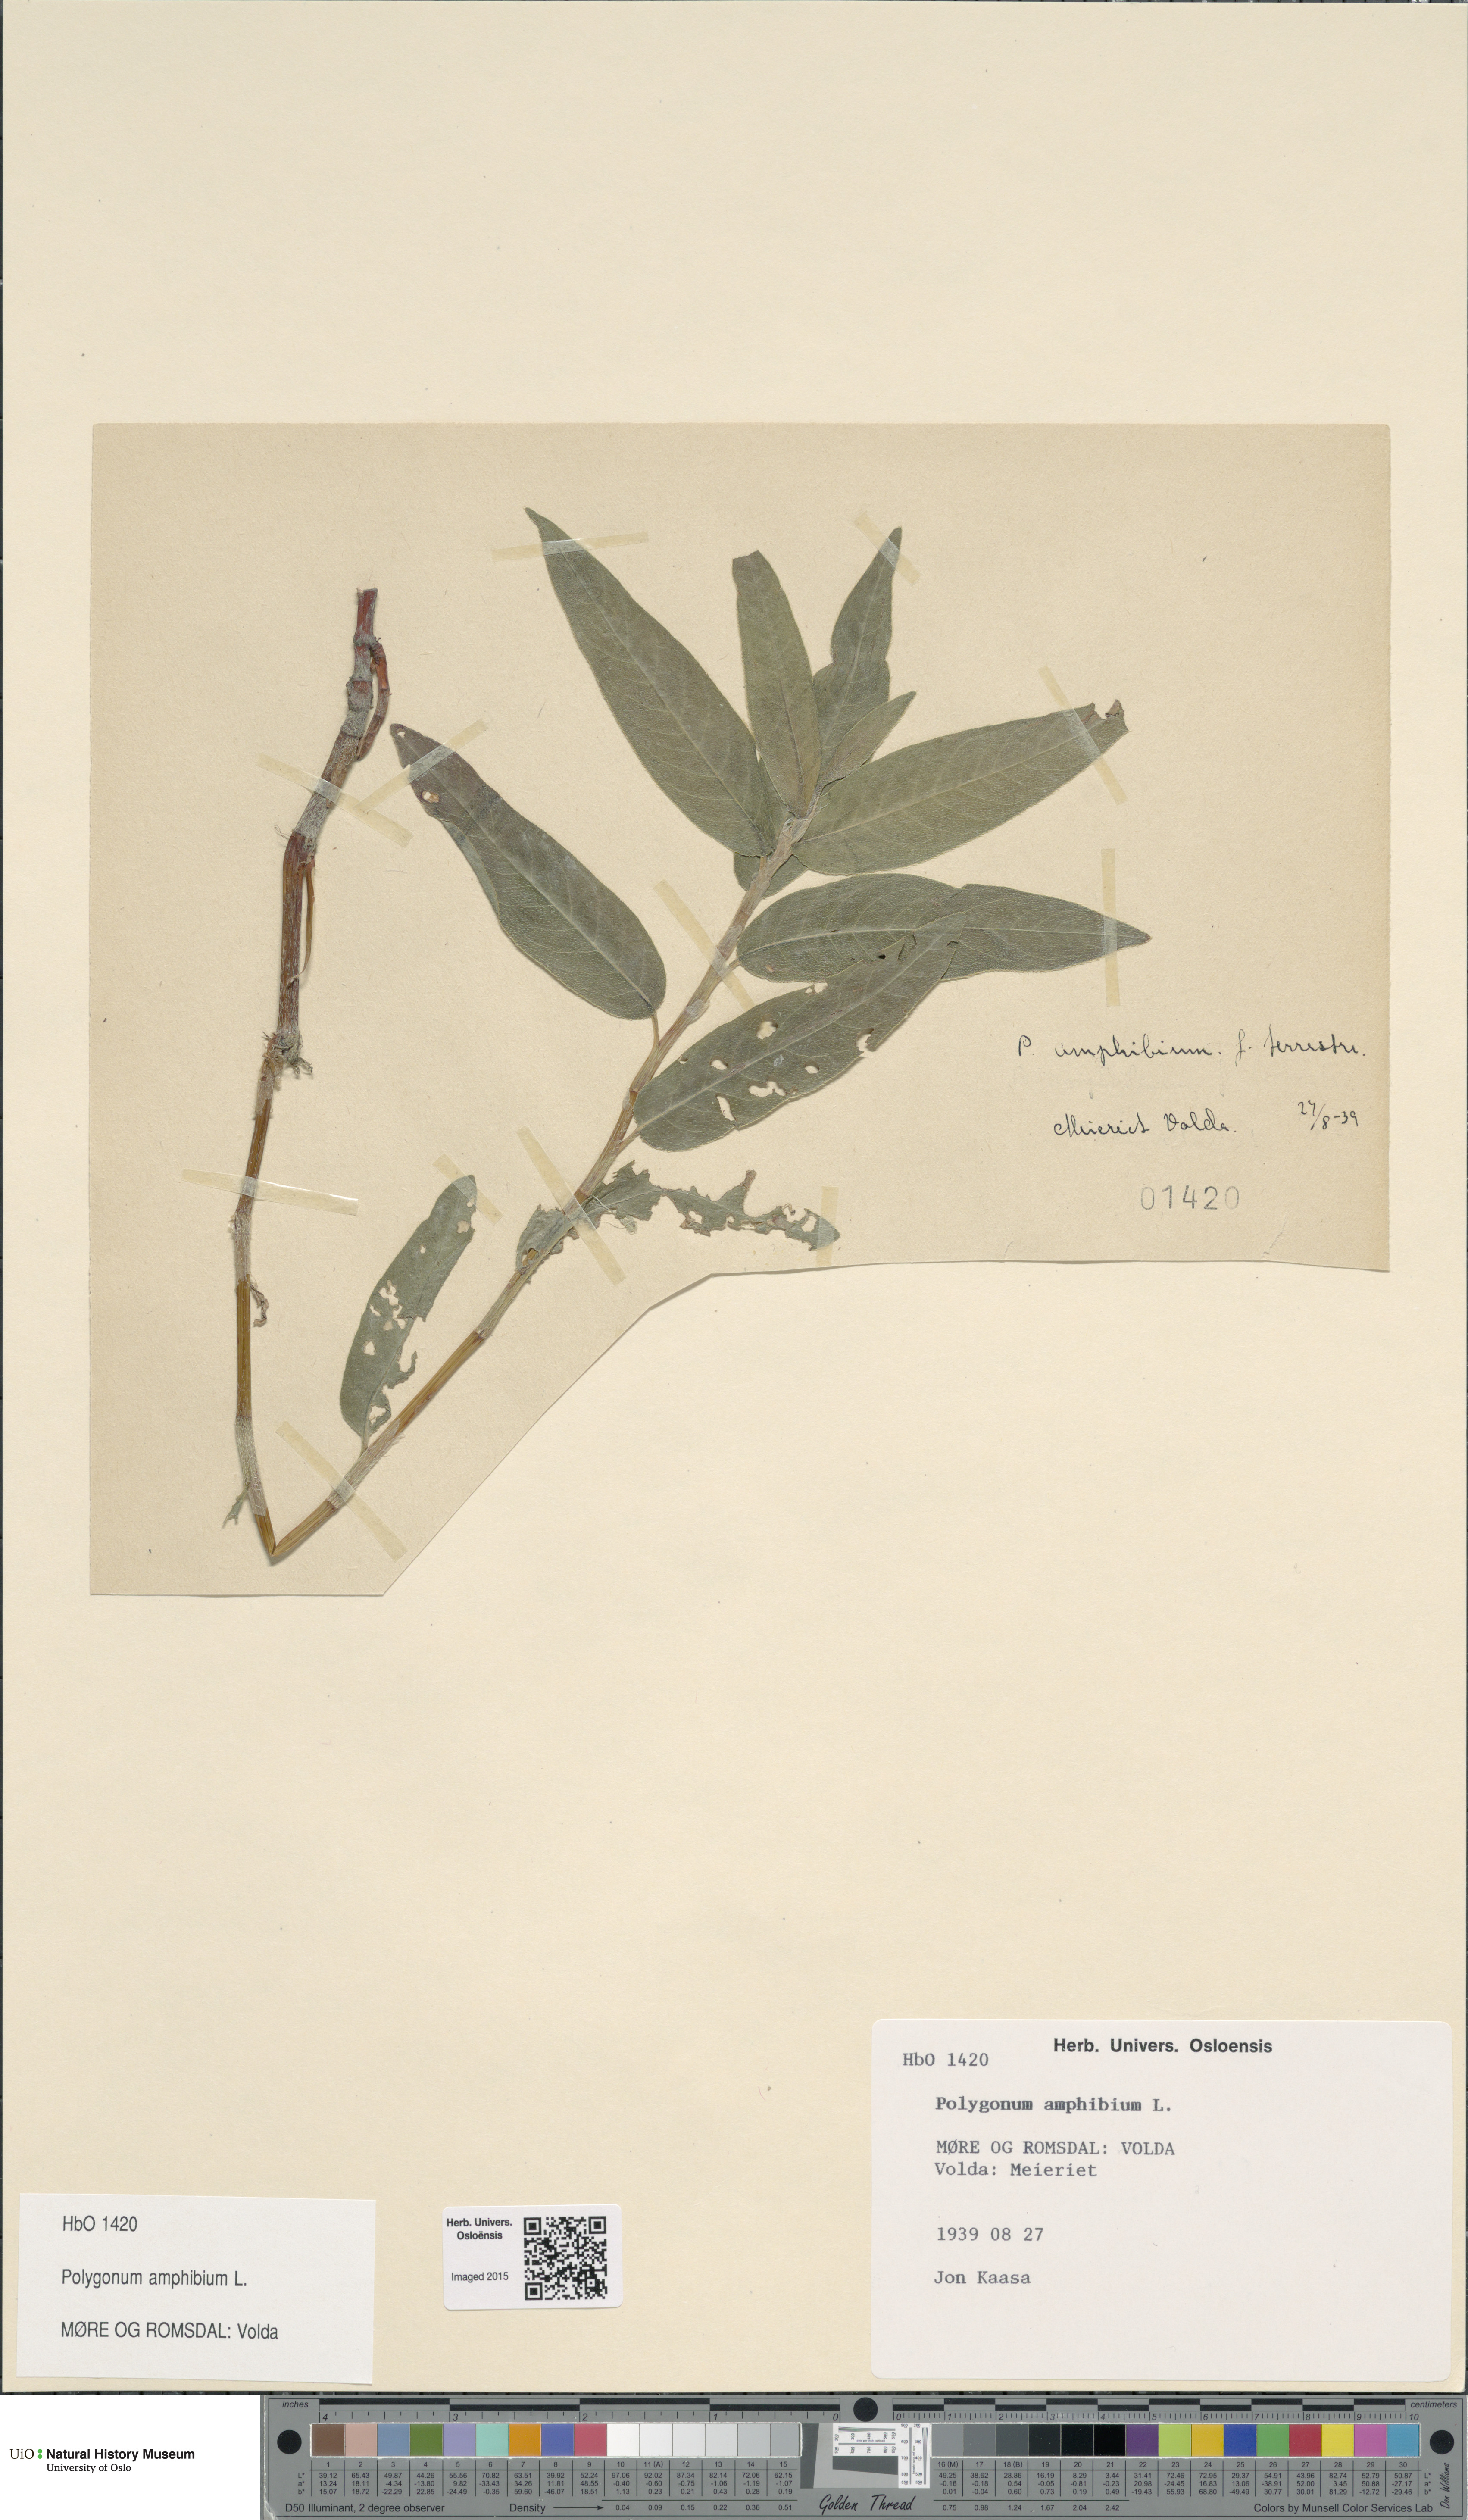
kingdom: Plantae
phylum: Tracheophyta
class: Magnoliopsida
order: Caryophyllales
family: Polygonaceae
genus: Persicaria
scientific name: Persicaria amphibia
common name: Amphibious bistort
